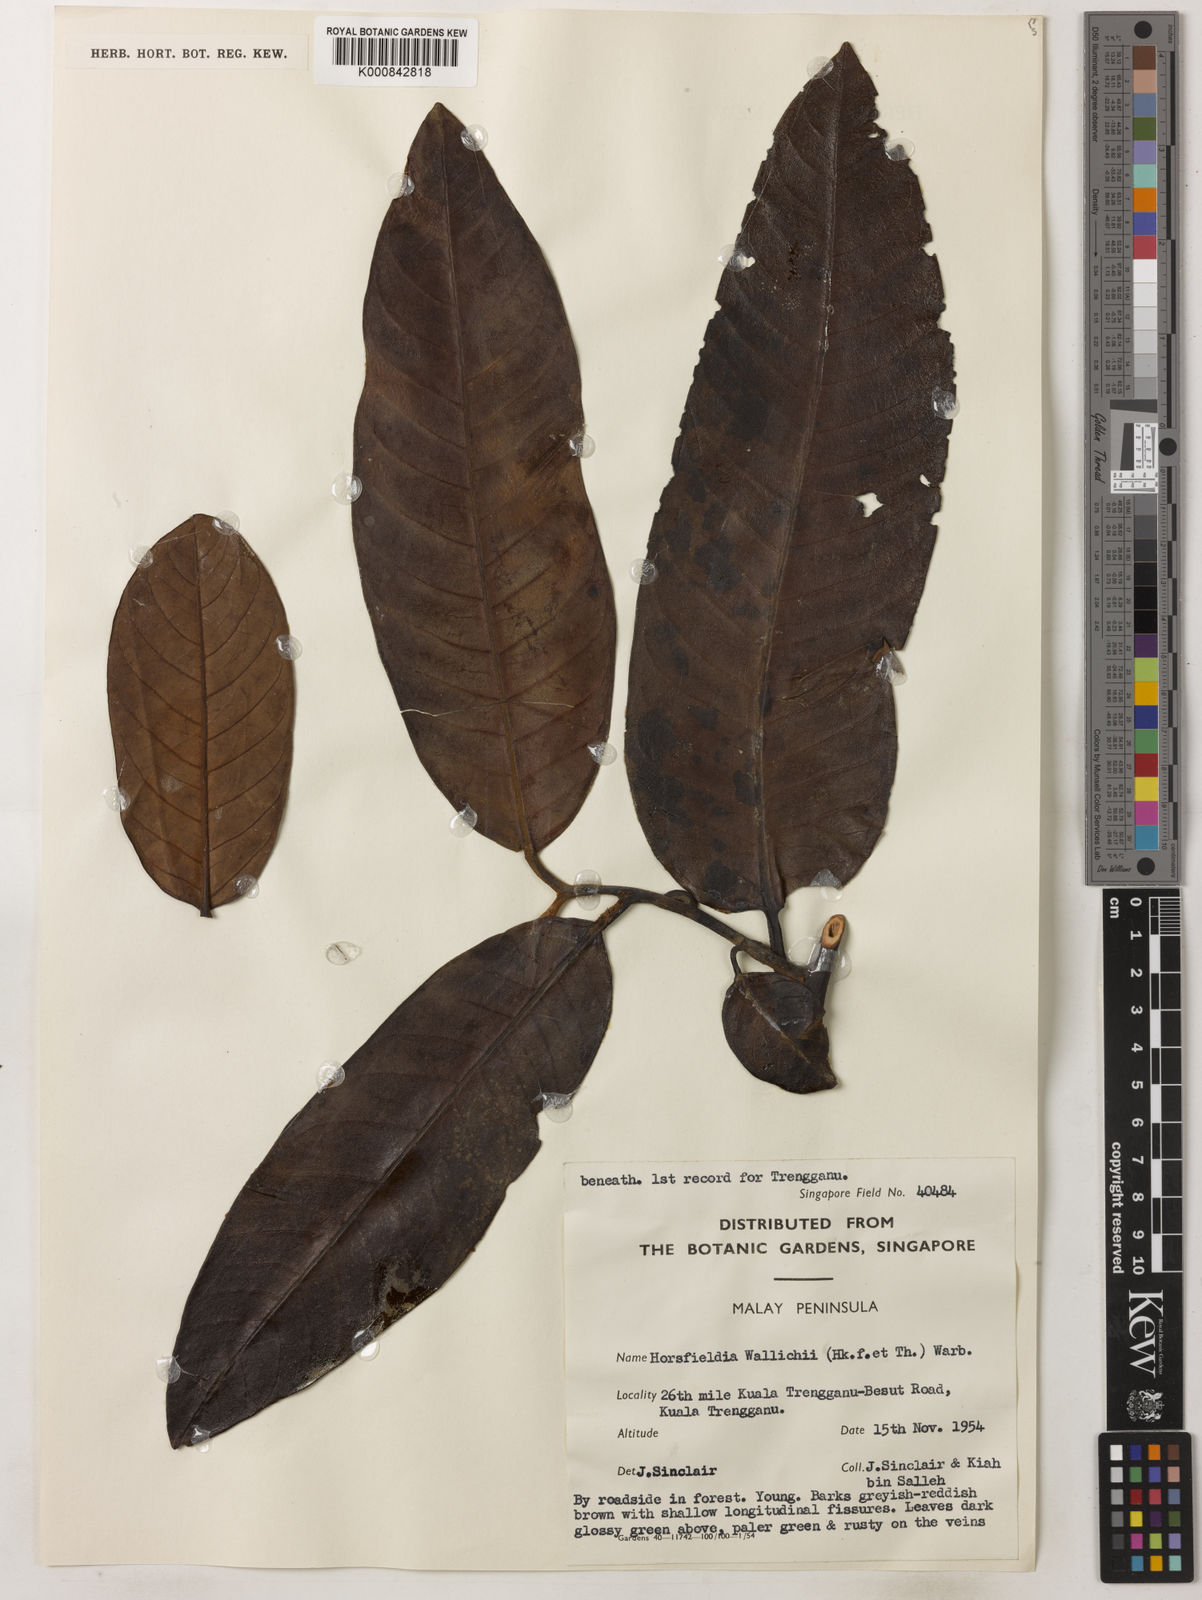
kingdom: Plantae
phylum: Tracheophyta
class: Magnoliopsida
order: Magnoliales
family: Myristicaceae
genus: Horsfieldia
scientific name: Horsfieldia wallichii
